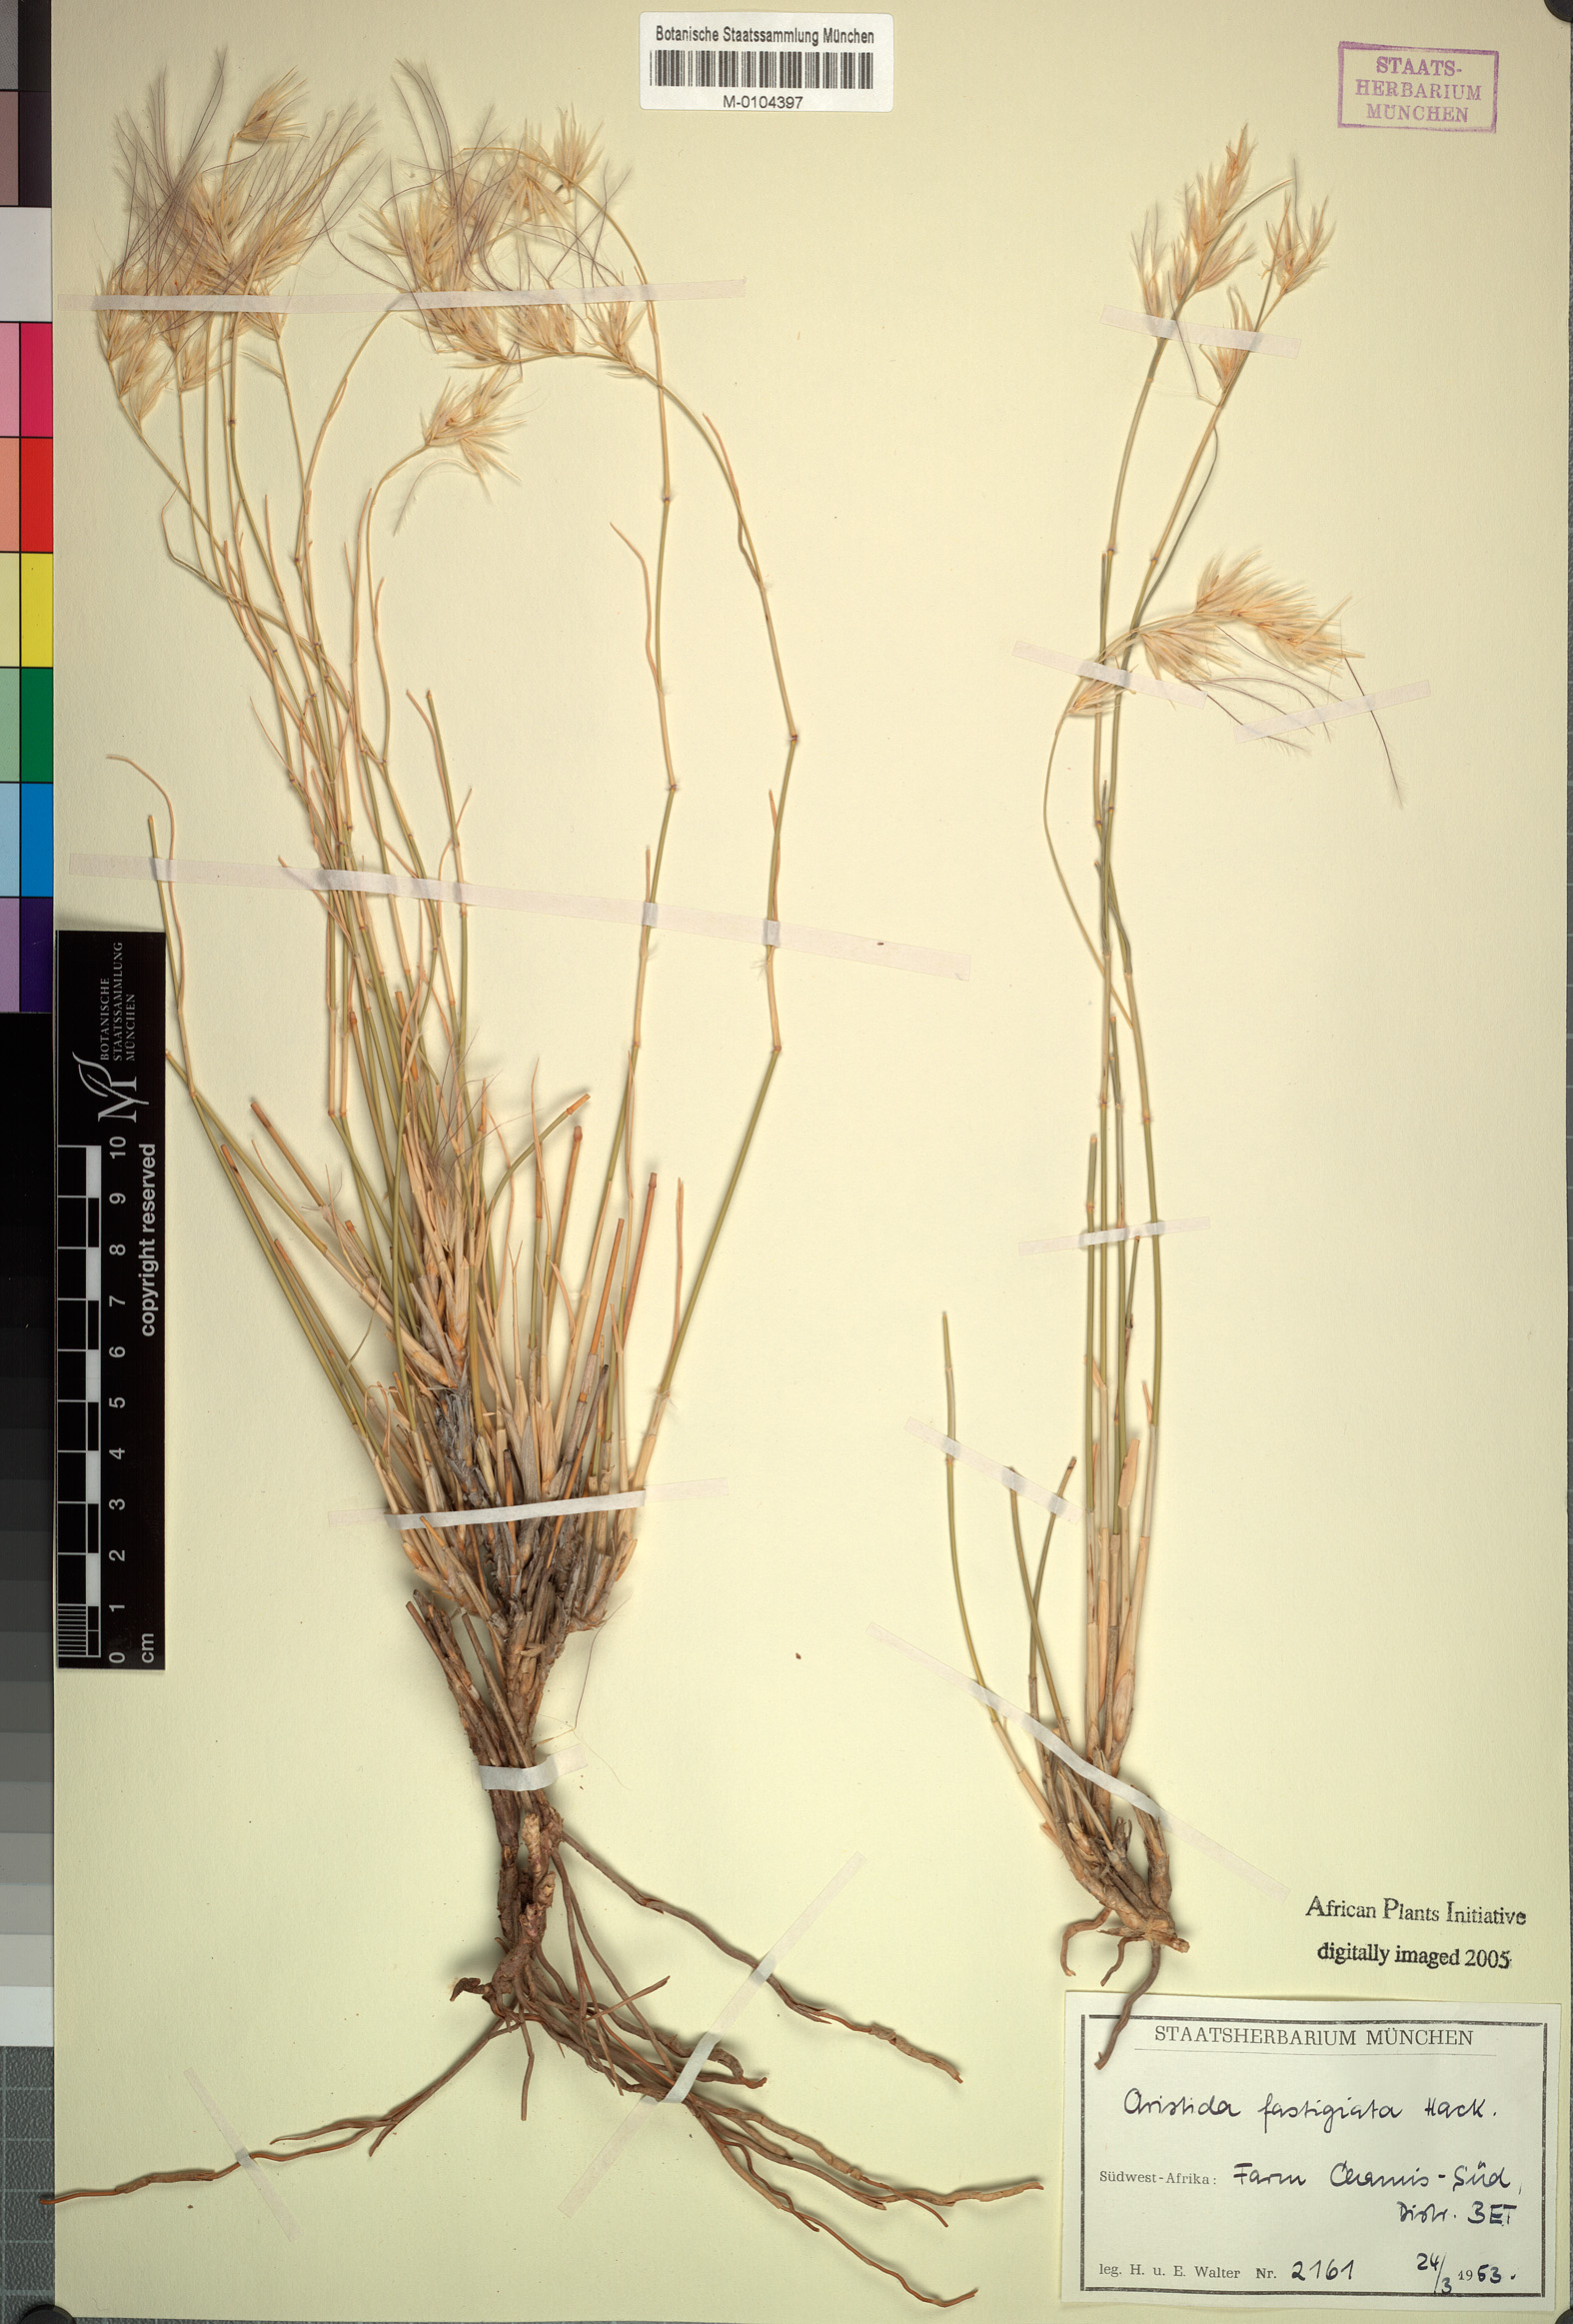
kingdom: Plantae
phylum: Tracheophyta
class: Liliopsida
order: Poales
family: Poaceae
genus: Stipagrostis
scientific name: Stipagrostis fastigiata
